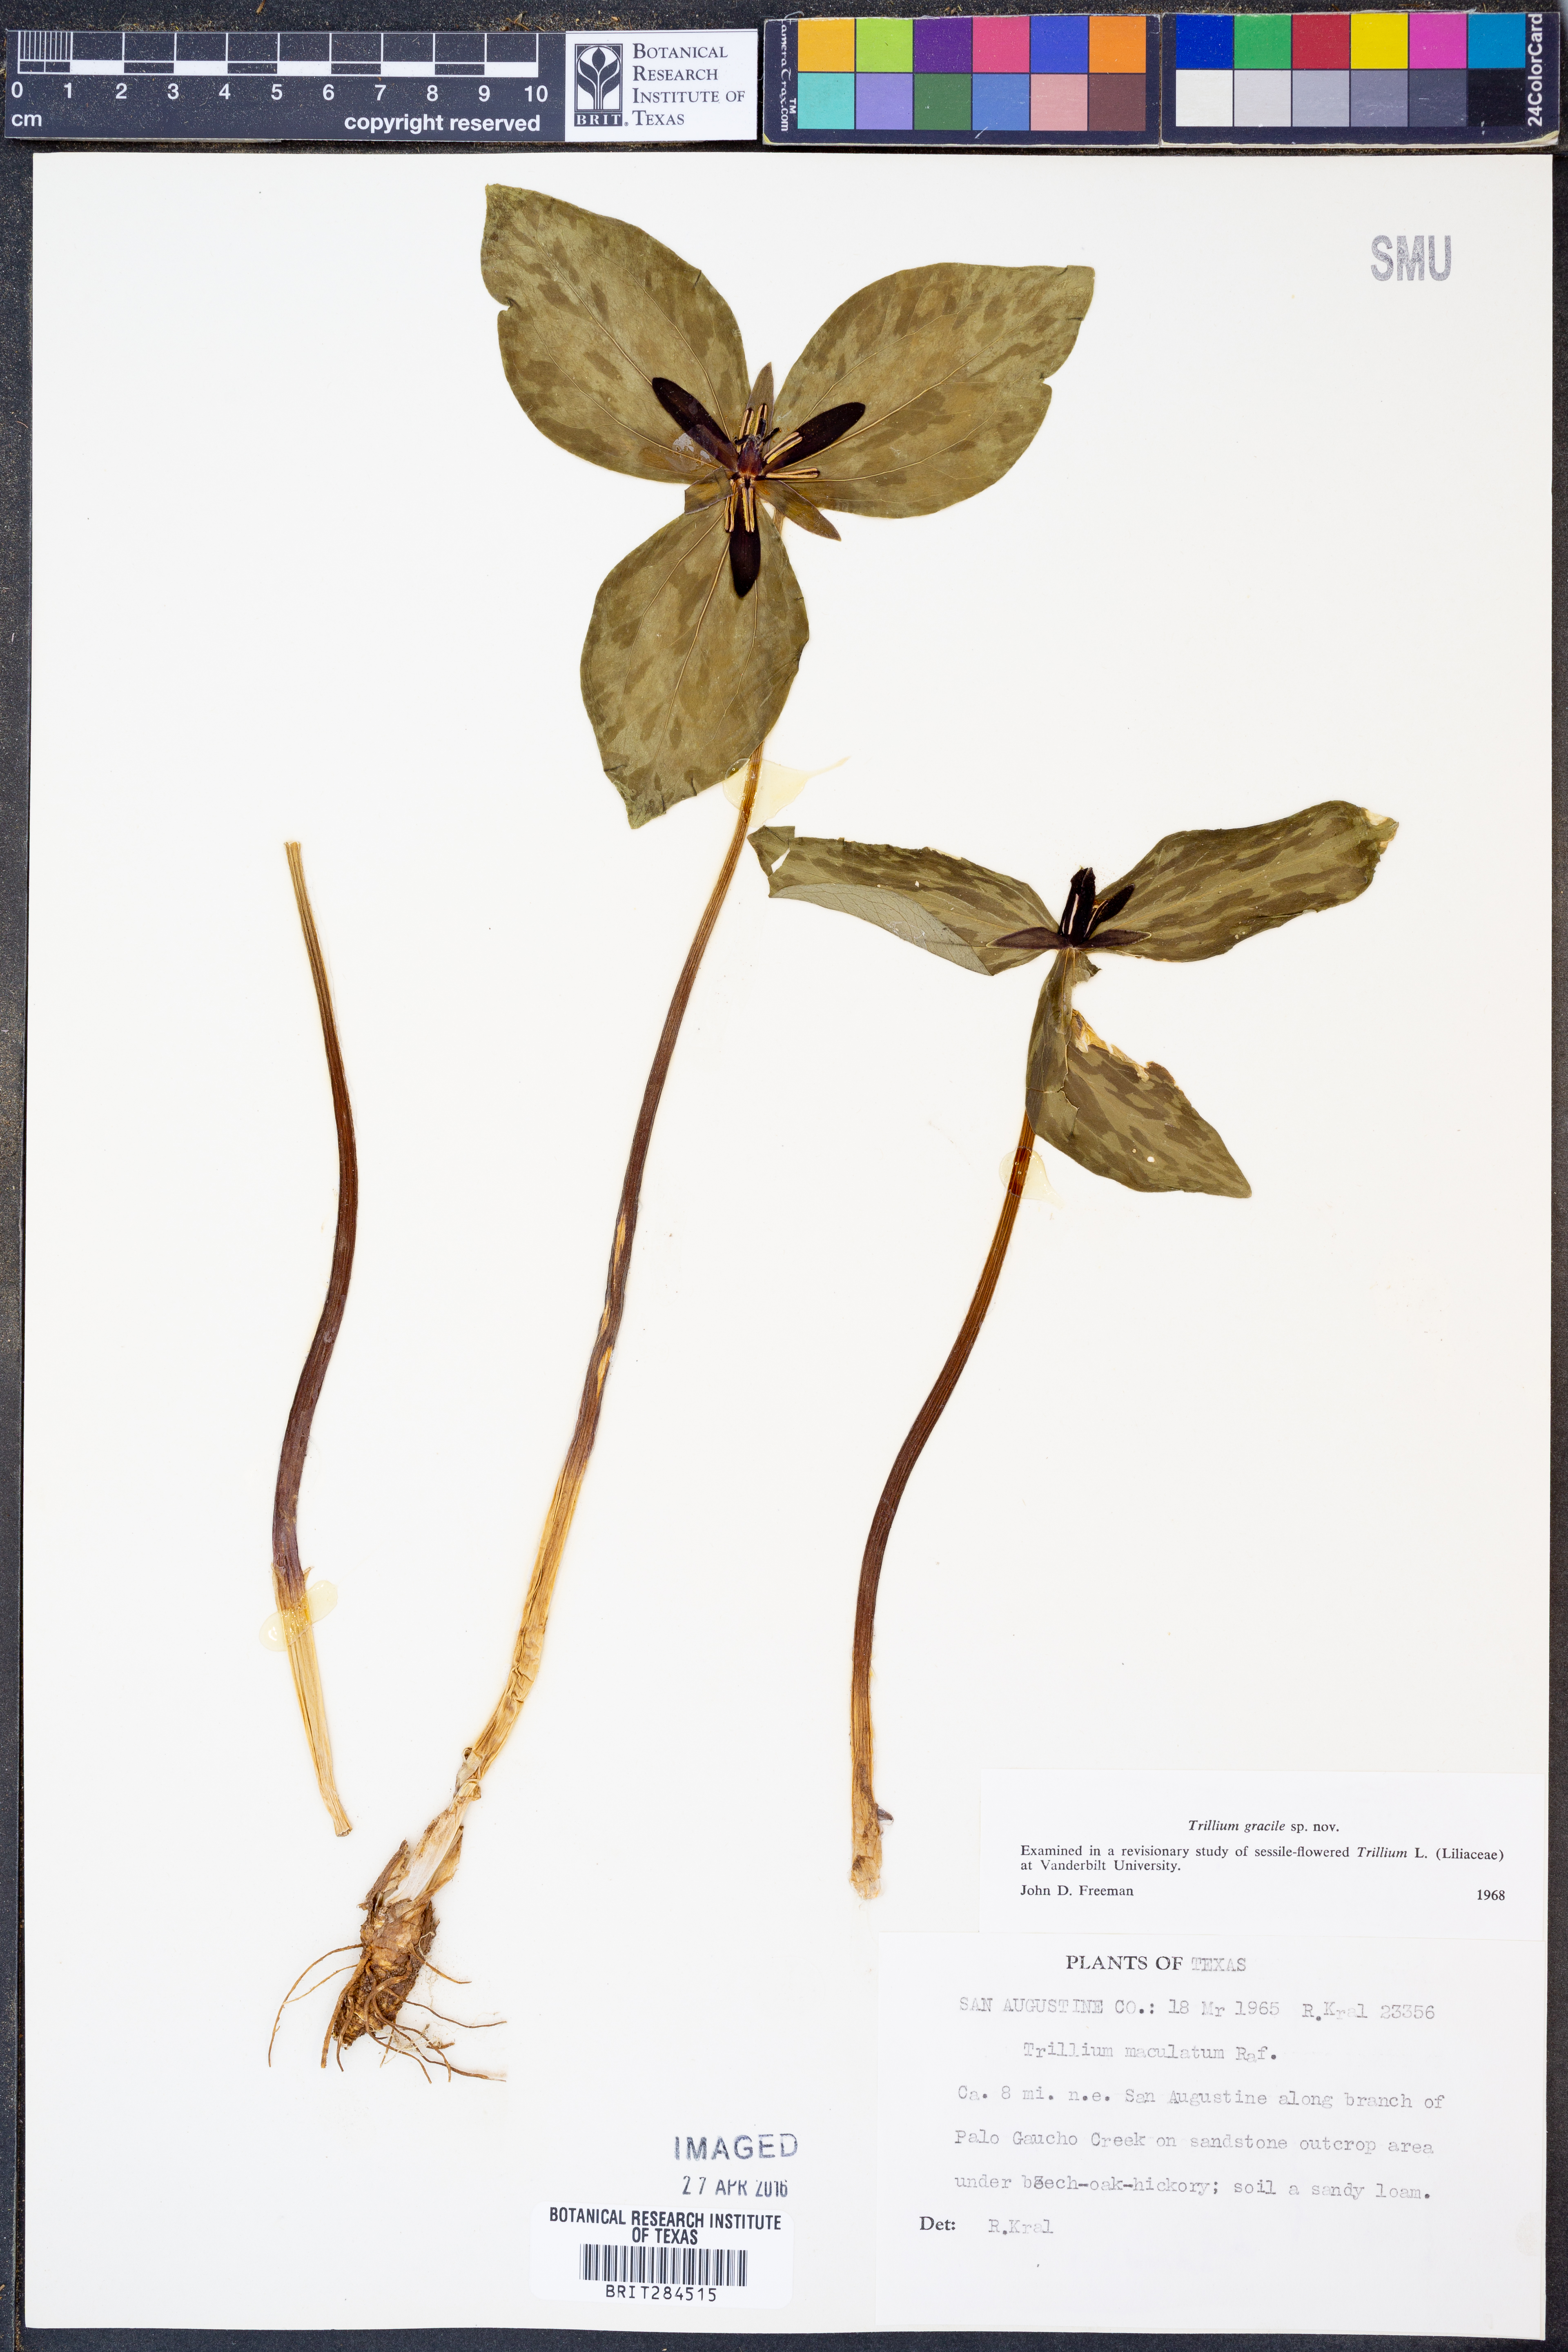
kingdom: Plantae
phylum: Tracheophyta
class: Liliopsida
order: Liliales
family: Melanthiaceae
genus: Trillium
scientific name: Trillium gracile
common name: Graceful trillium
